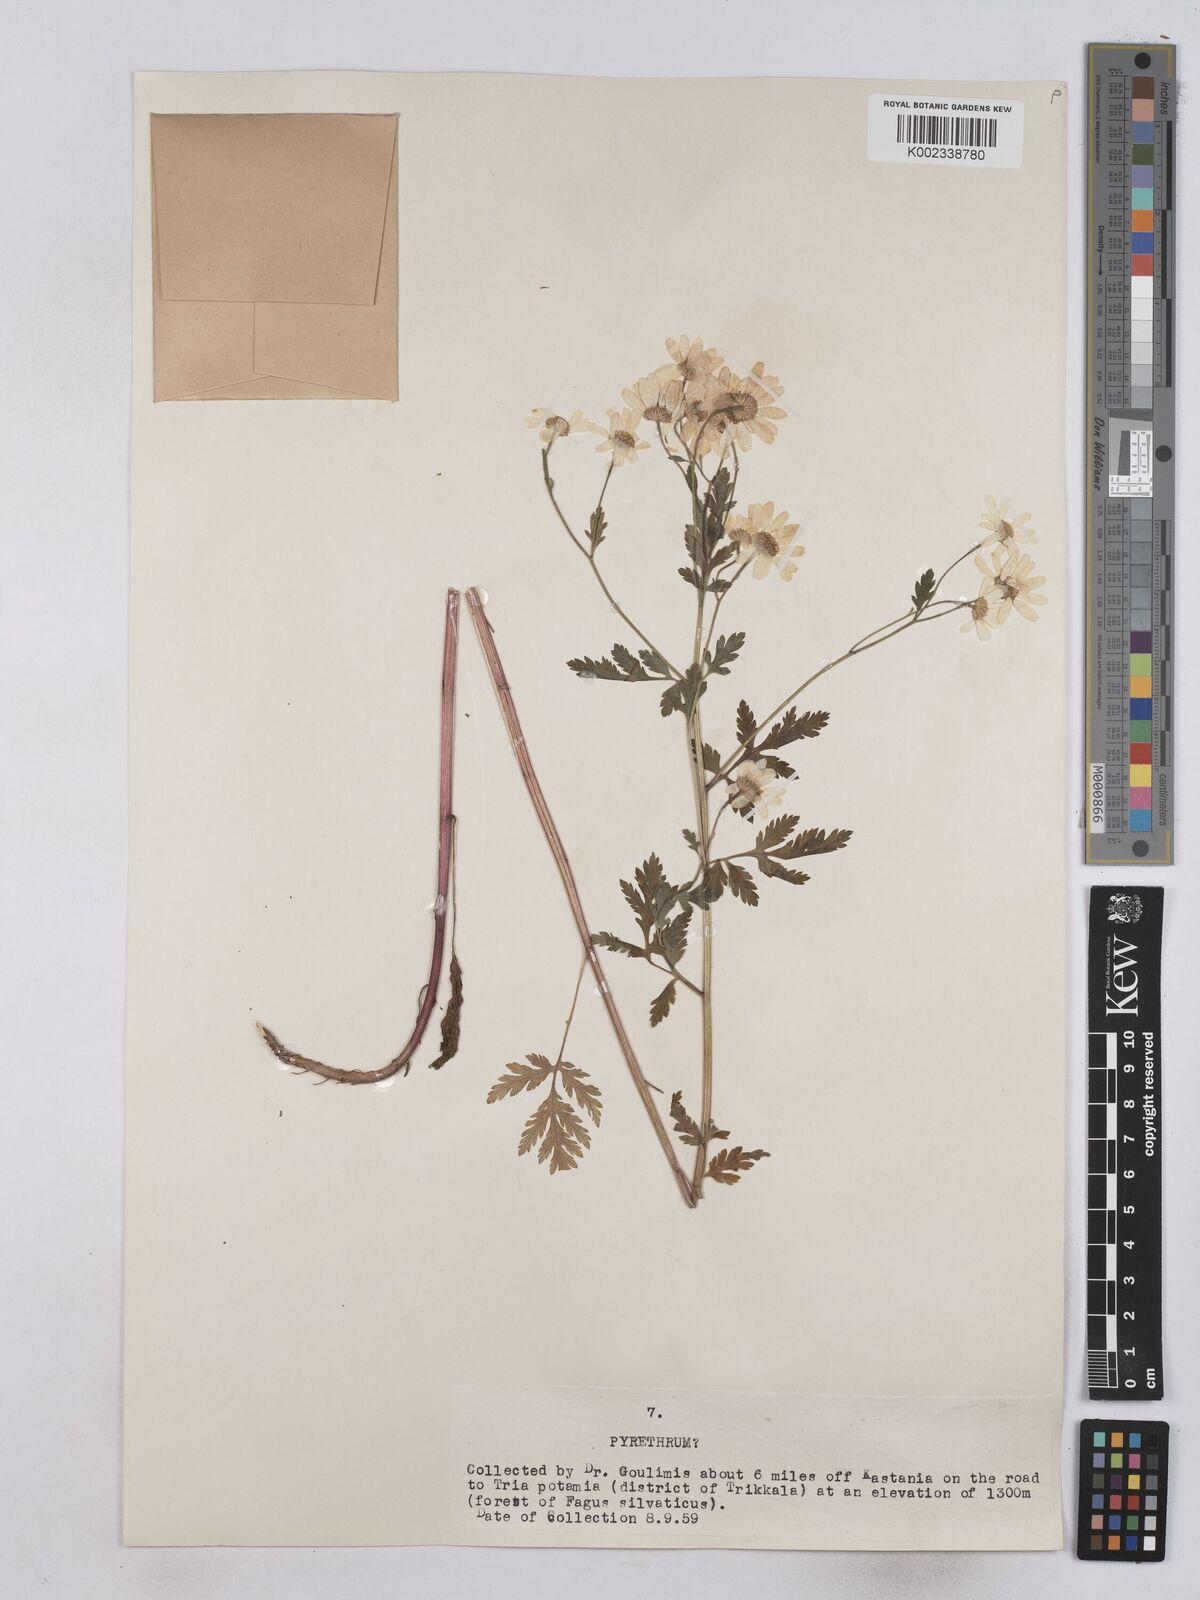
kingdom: Plantae
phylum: Tracheophyta
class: Magnoliopsida
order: Asterales
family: Asteraceae
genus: Tanacetum
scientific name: Tanacetum parthenium
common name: Feverfew
